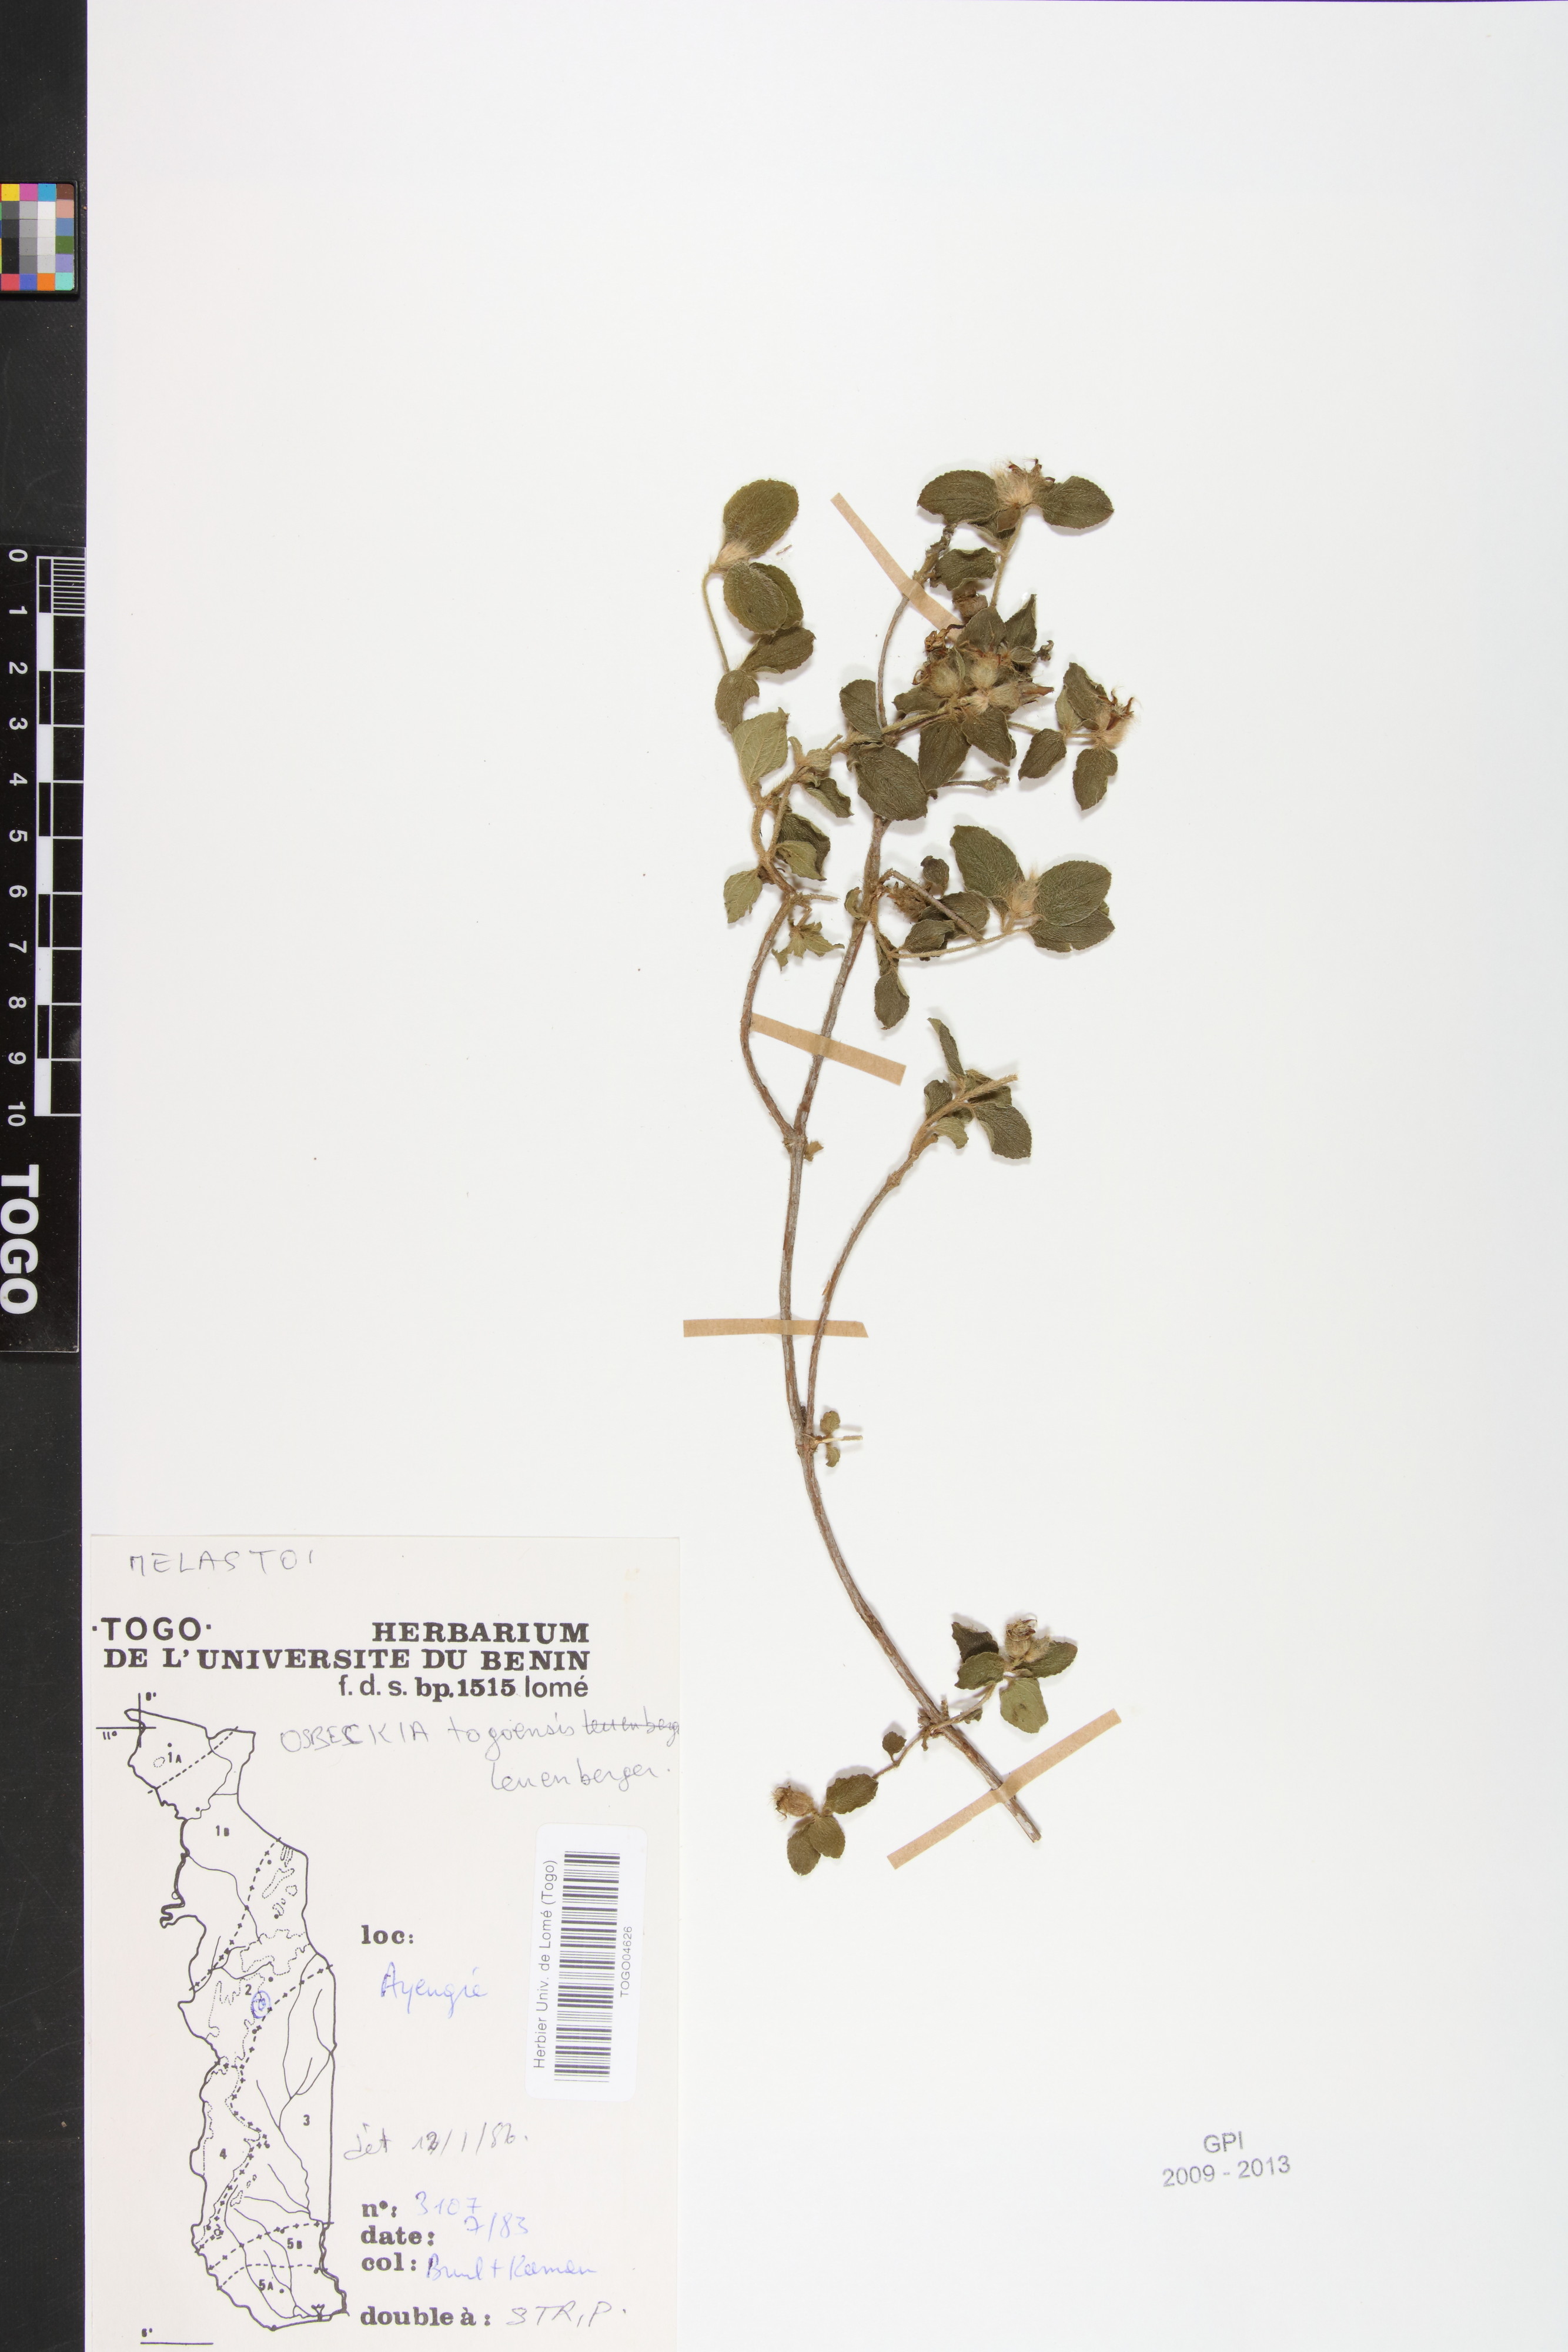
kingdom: Plantae
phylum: Tracheophyta
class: Magnoliopsida
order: Myrtales
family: Melastomataceae
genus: Nerophila
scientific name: Nerophila togoensis
